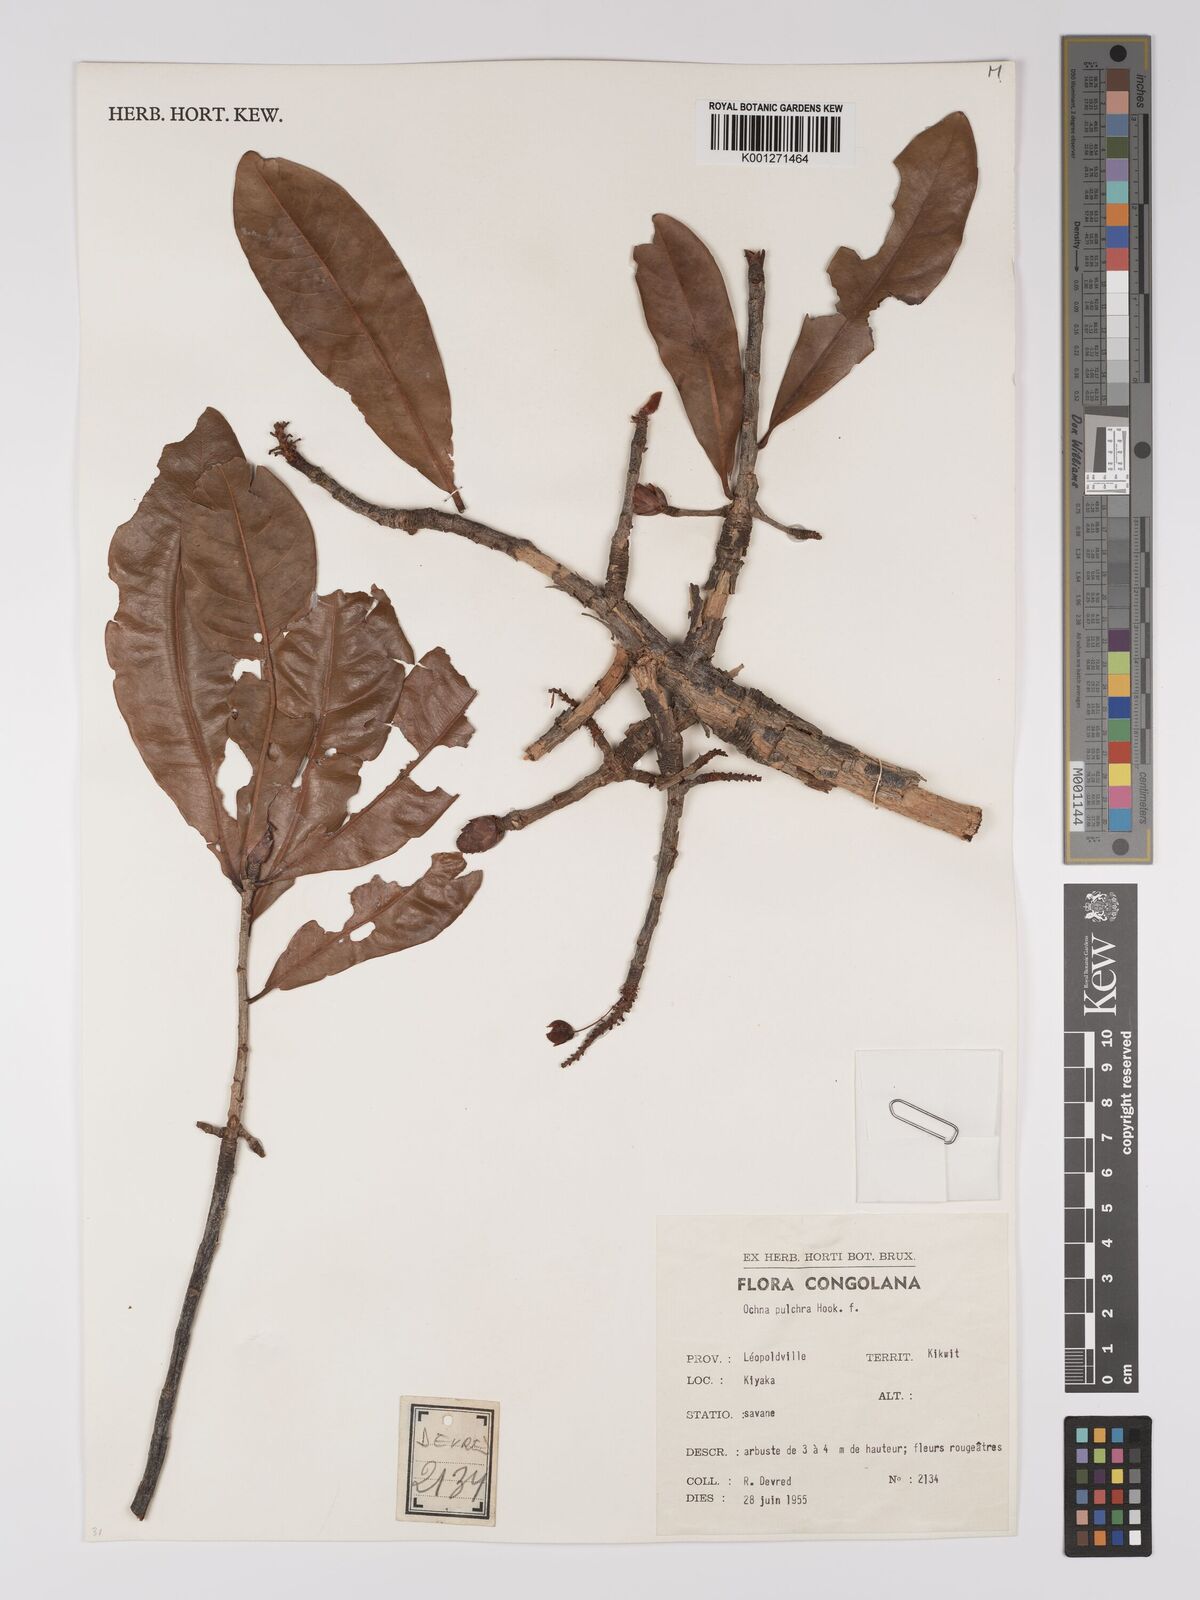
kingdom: Plantae
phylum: Tracheophyta
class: Magnoliopsida
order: Malpighiales
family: Ochnaceae
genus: Ochna
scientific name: Ochna pulchra
